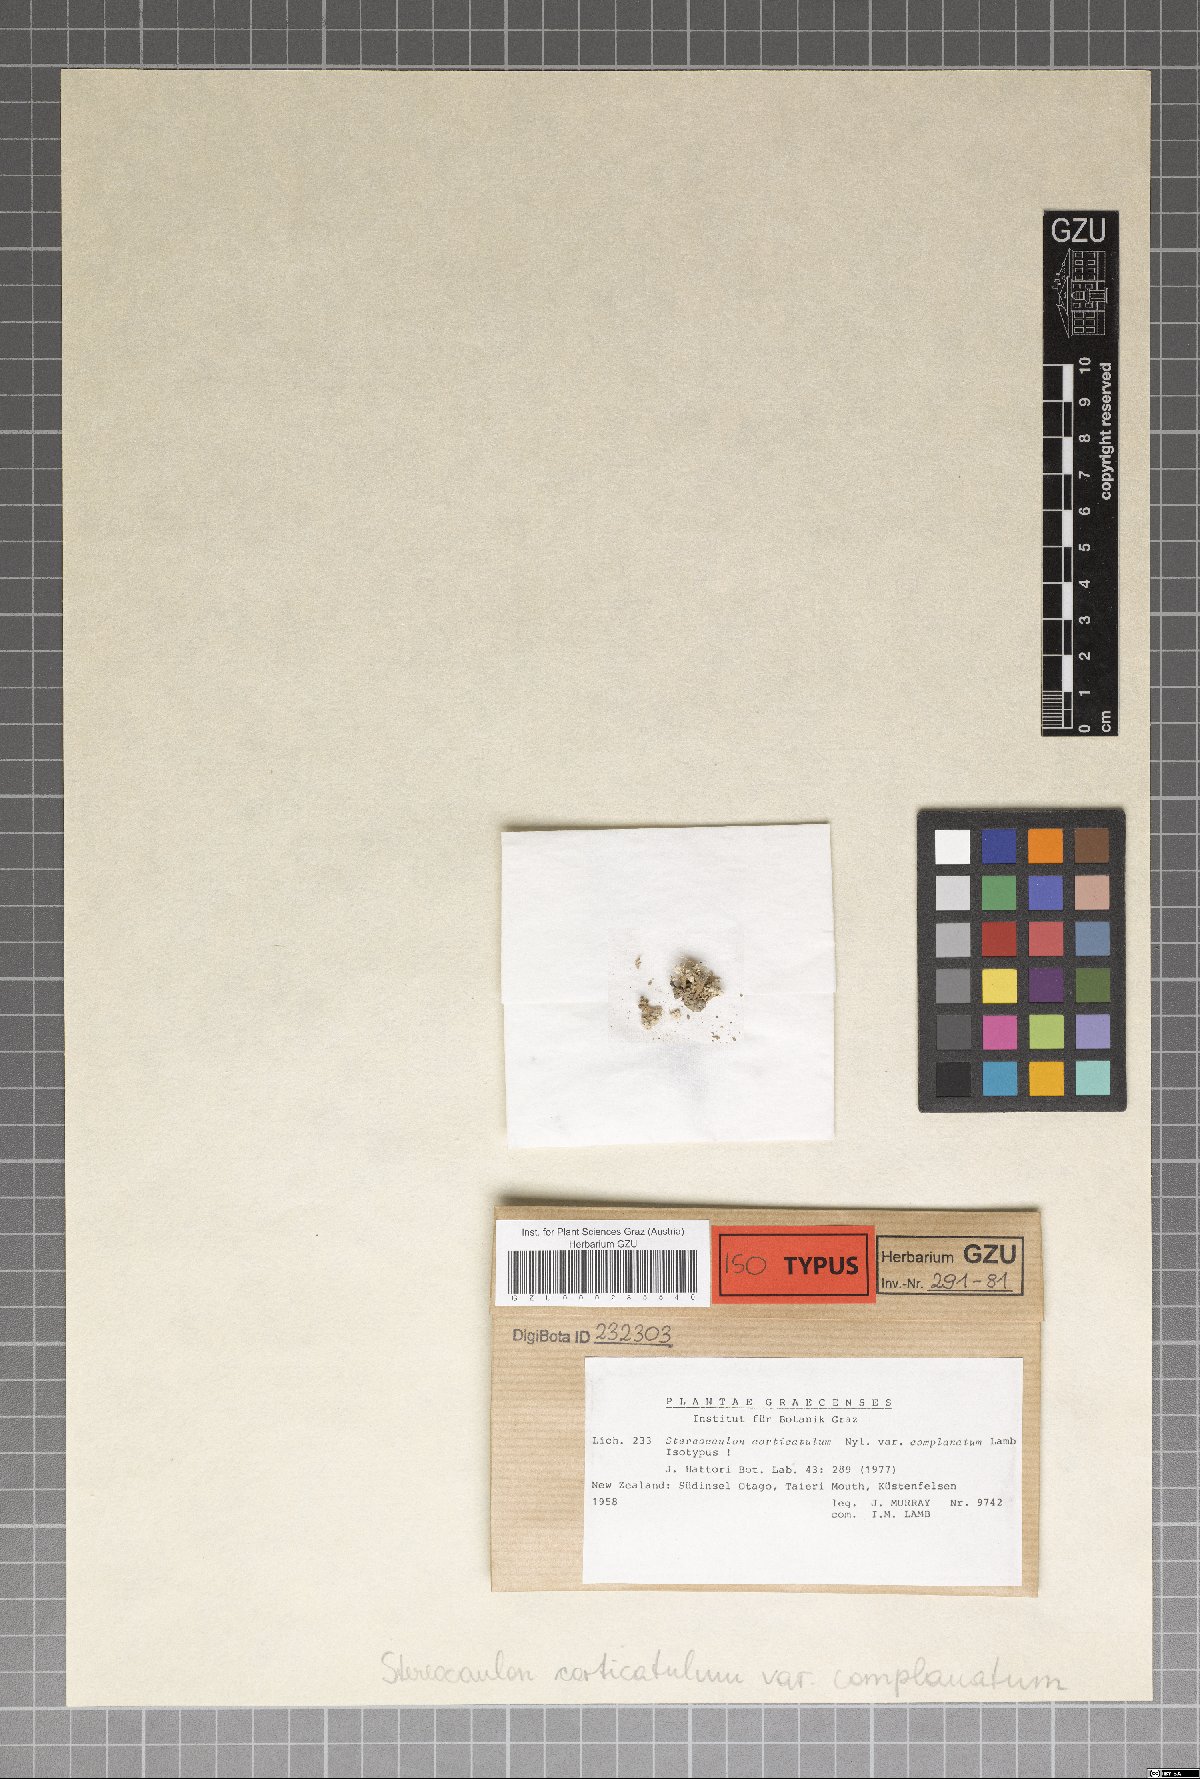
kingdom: Fungi
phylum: Ascomycota
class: Lecanoromycetes
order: Lecanorales
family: Stereocaulaceae
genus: Stereocaulon
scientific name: Stereocaulon corticatulum
